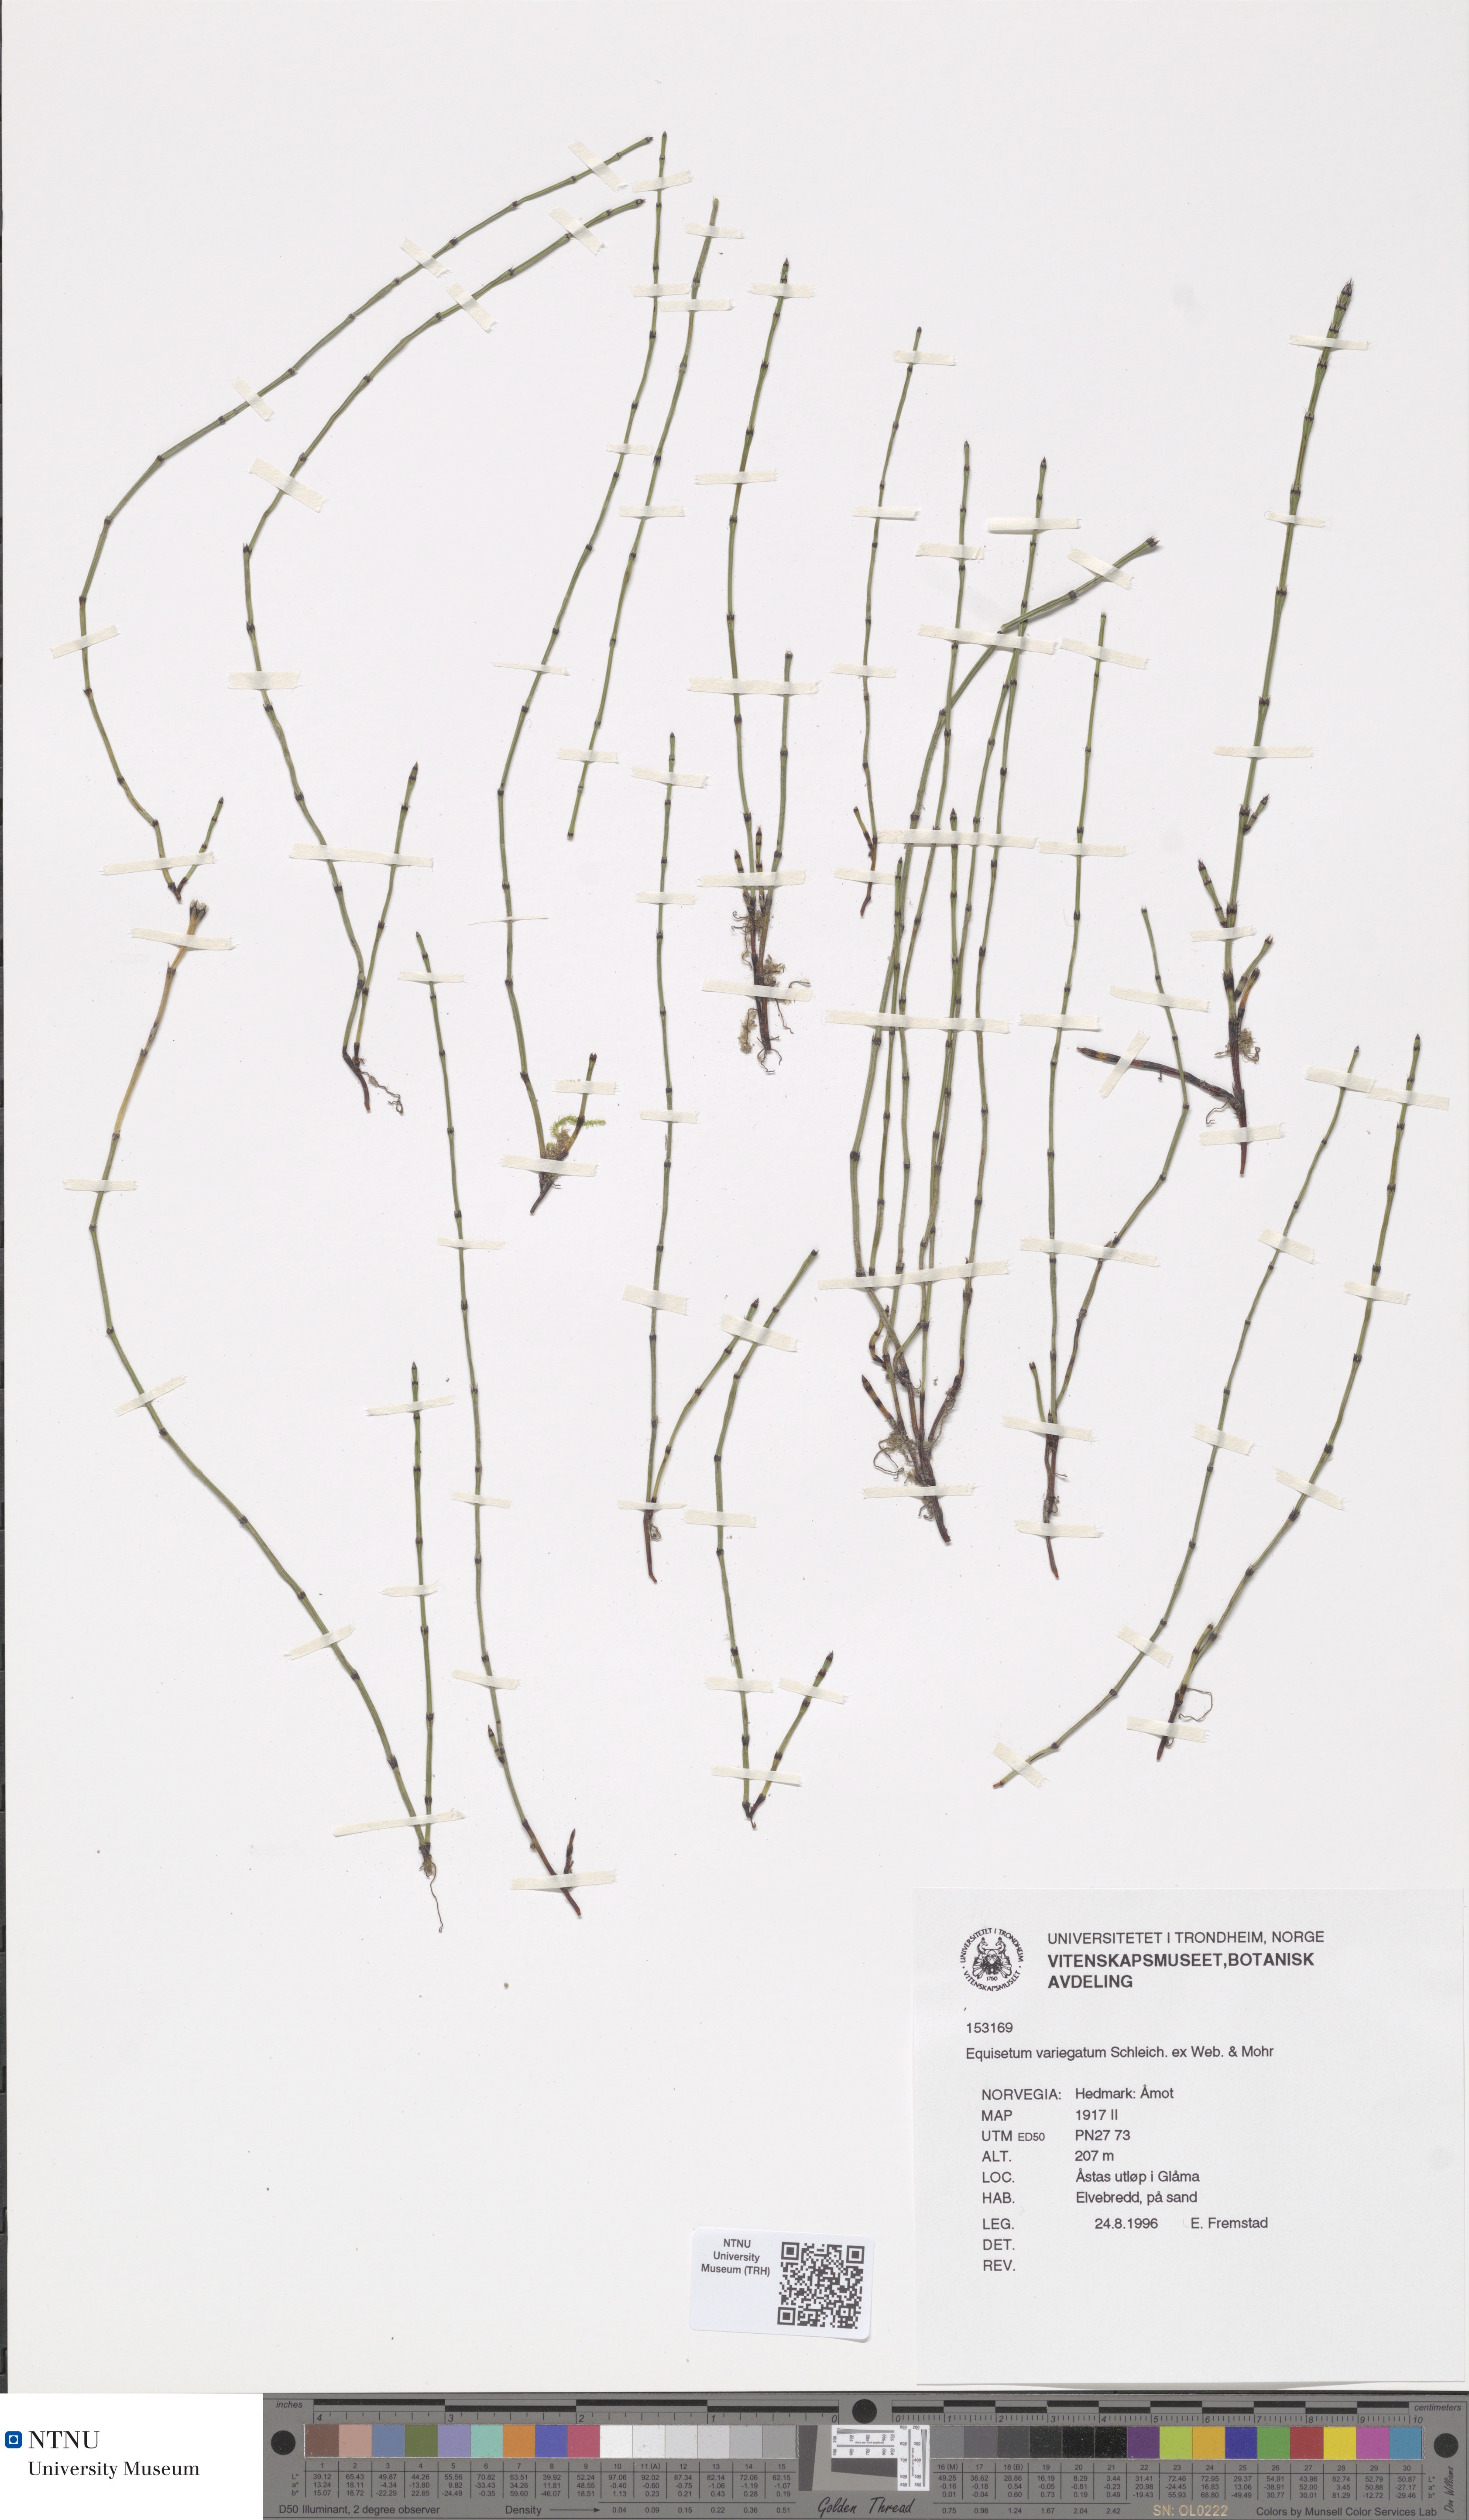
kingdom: Plantae
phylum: Tracheophyta
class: Polypodiopsida
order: Equisetales
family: Equisetaceae
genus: Equisetum
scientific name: Equisetum variegatum
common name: Variegated horsetail
